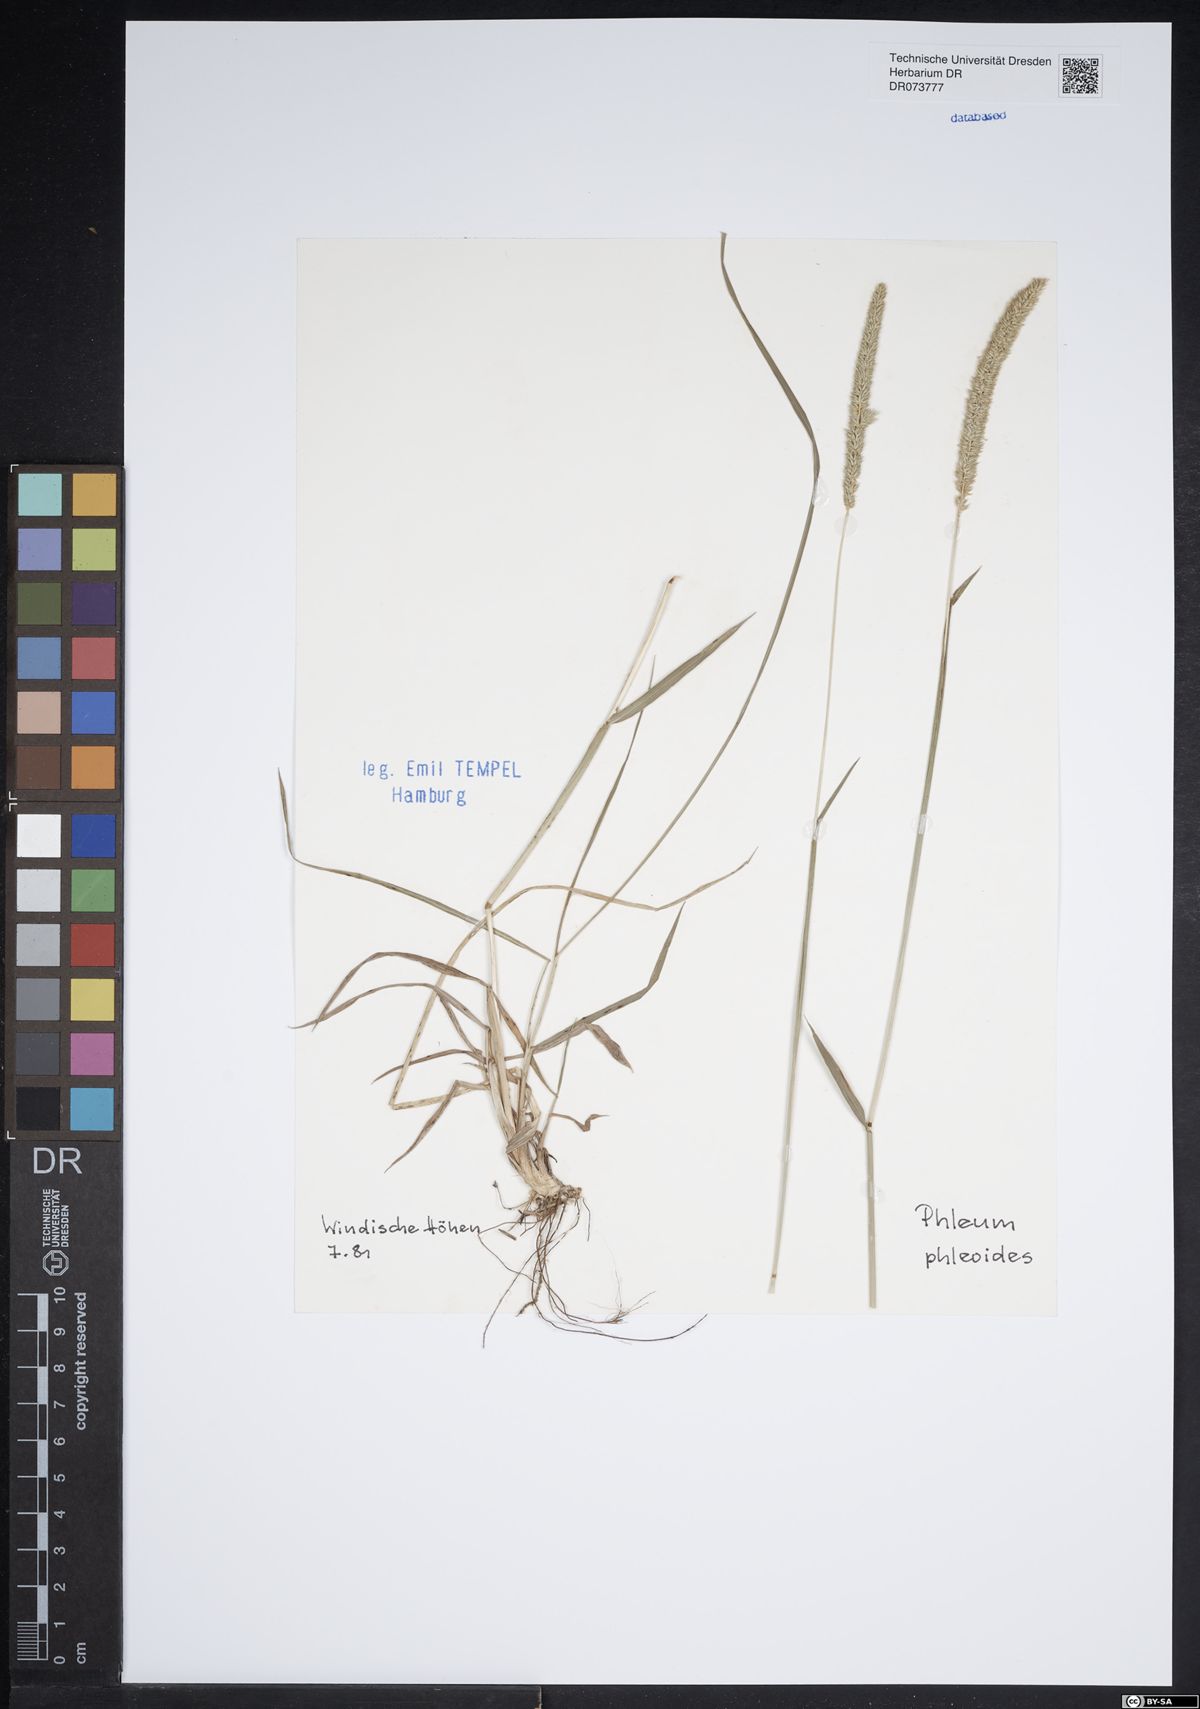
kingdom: Plantae
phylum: Tracheophyta
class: Liliopsida
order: Poales
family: Poaceae
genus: Phleum
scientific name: Phleum phleoides
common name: Purple-stem cat's-tail
